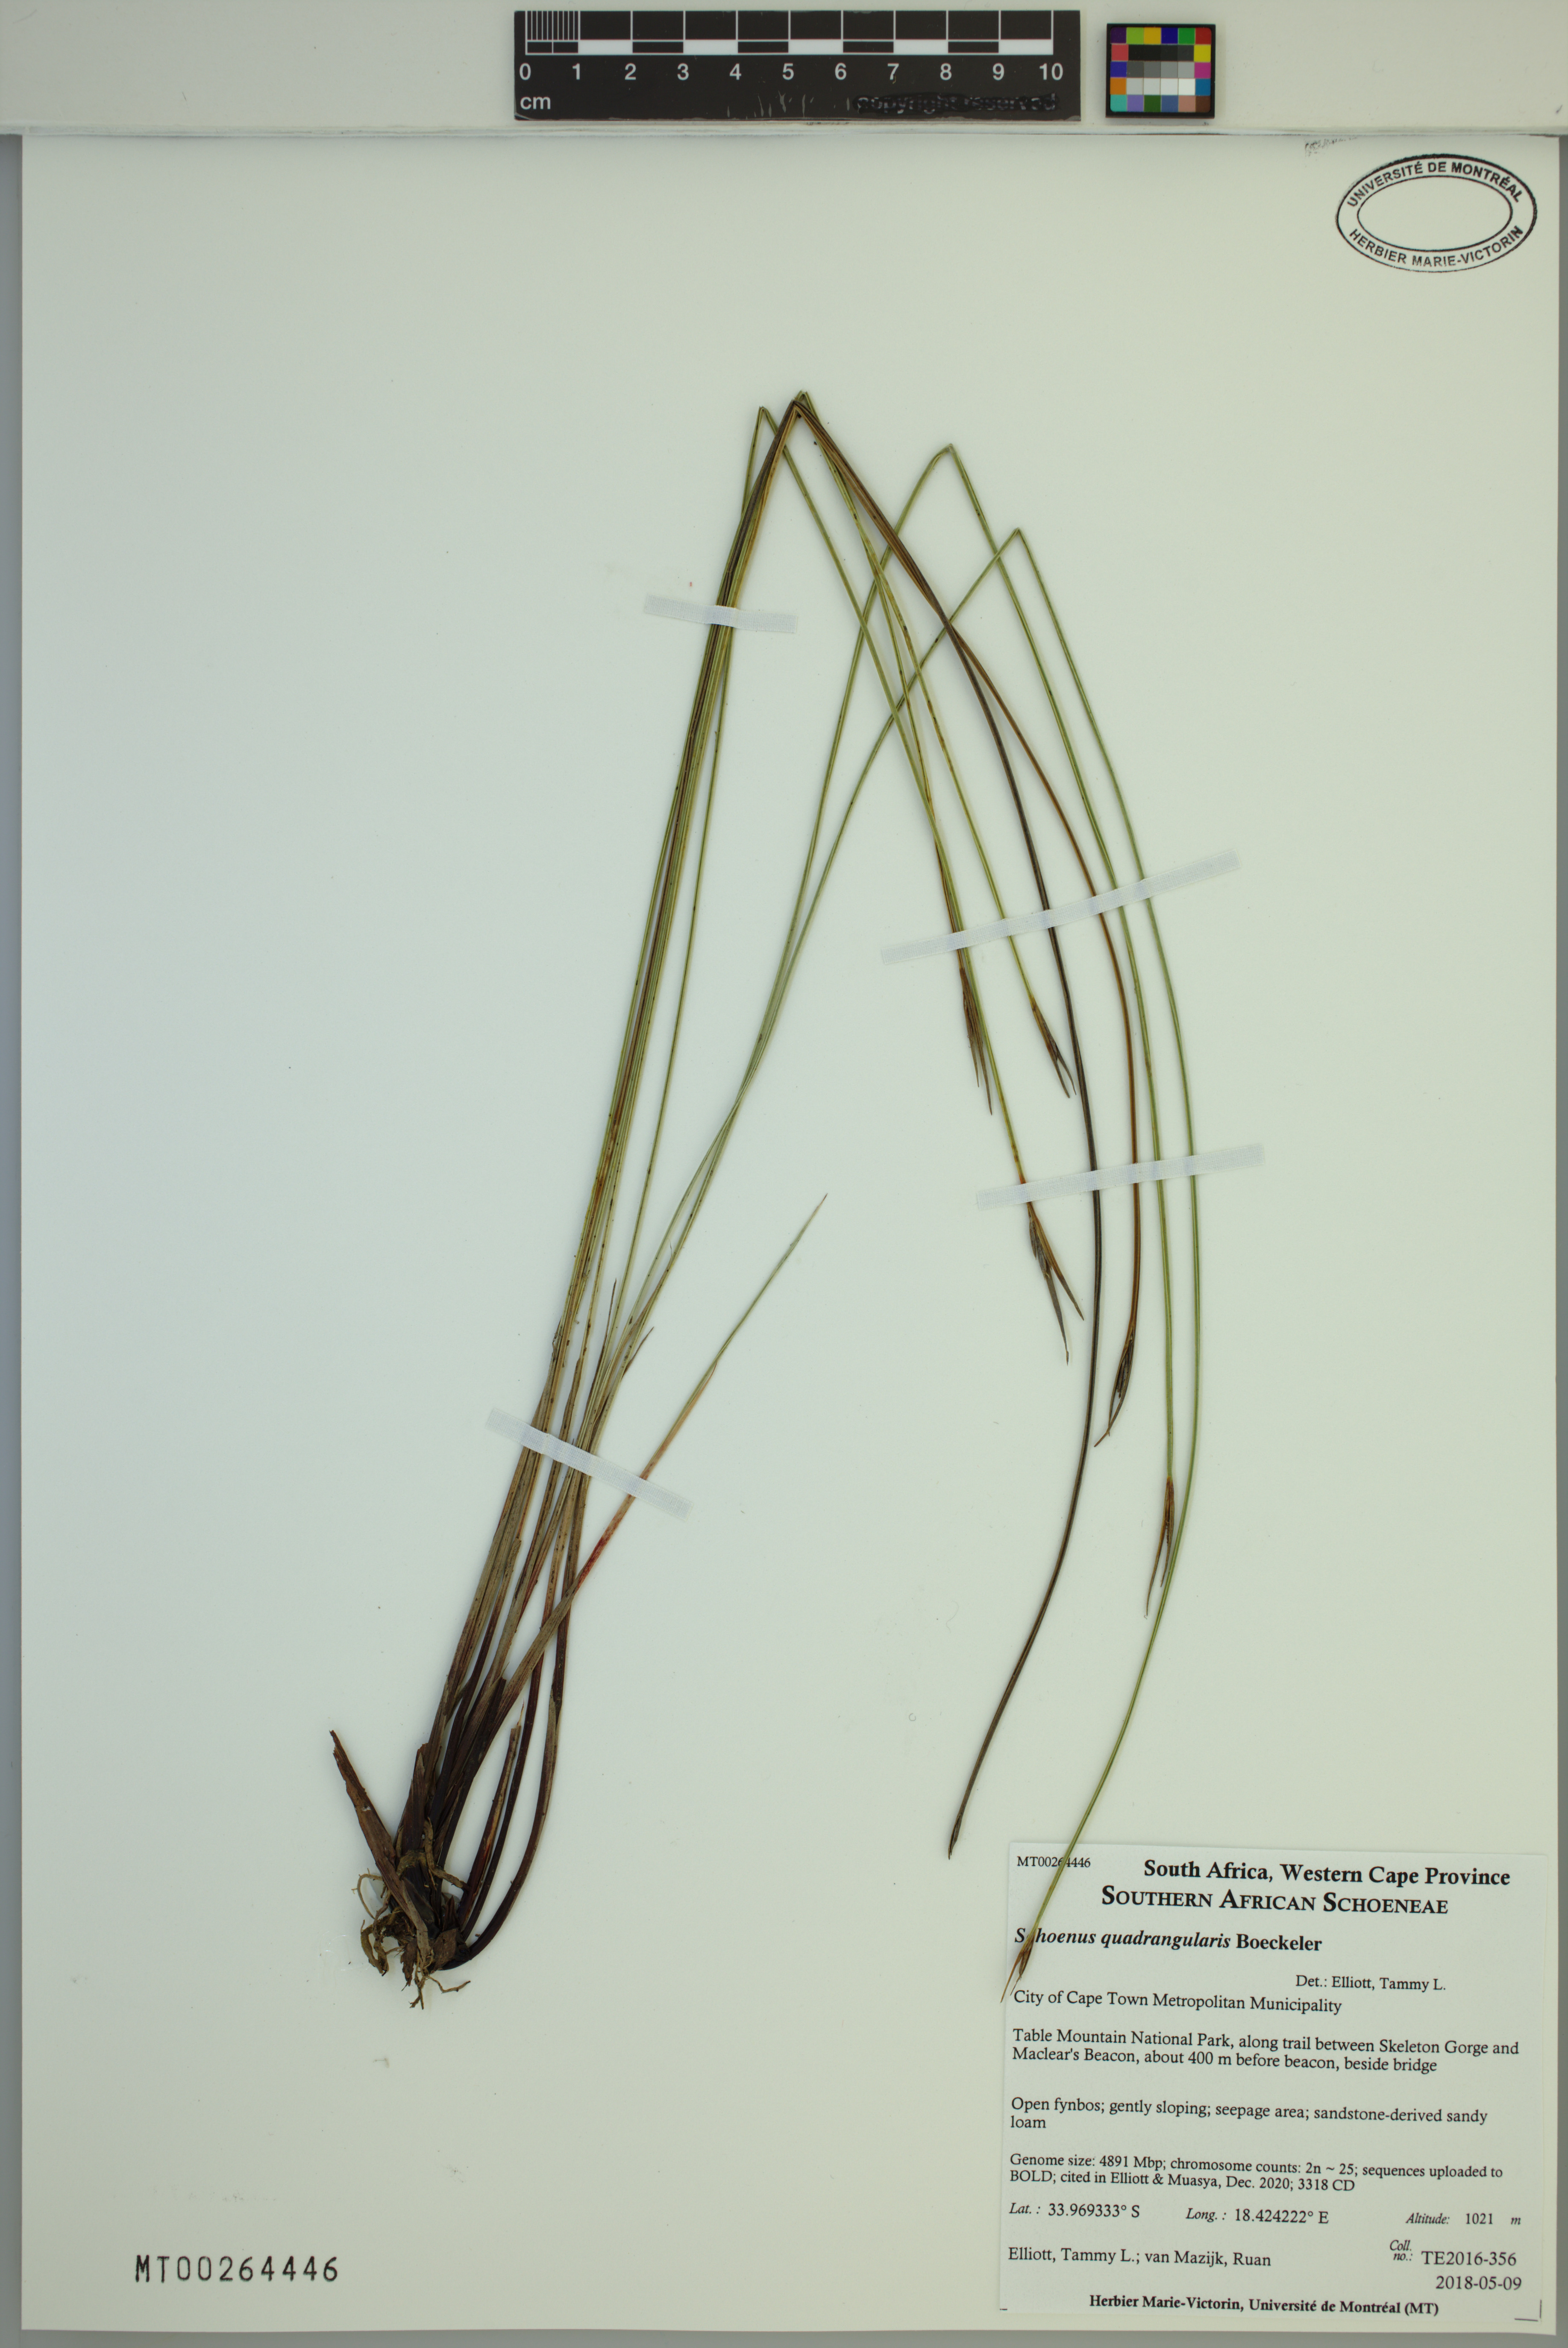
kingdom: Plantae
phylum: Tracheophyta
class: Liliopsida
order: Poales
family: Cyperaceae
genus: Schoenus
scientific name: Schoenus quadrangularis
